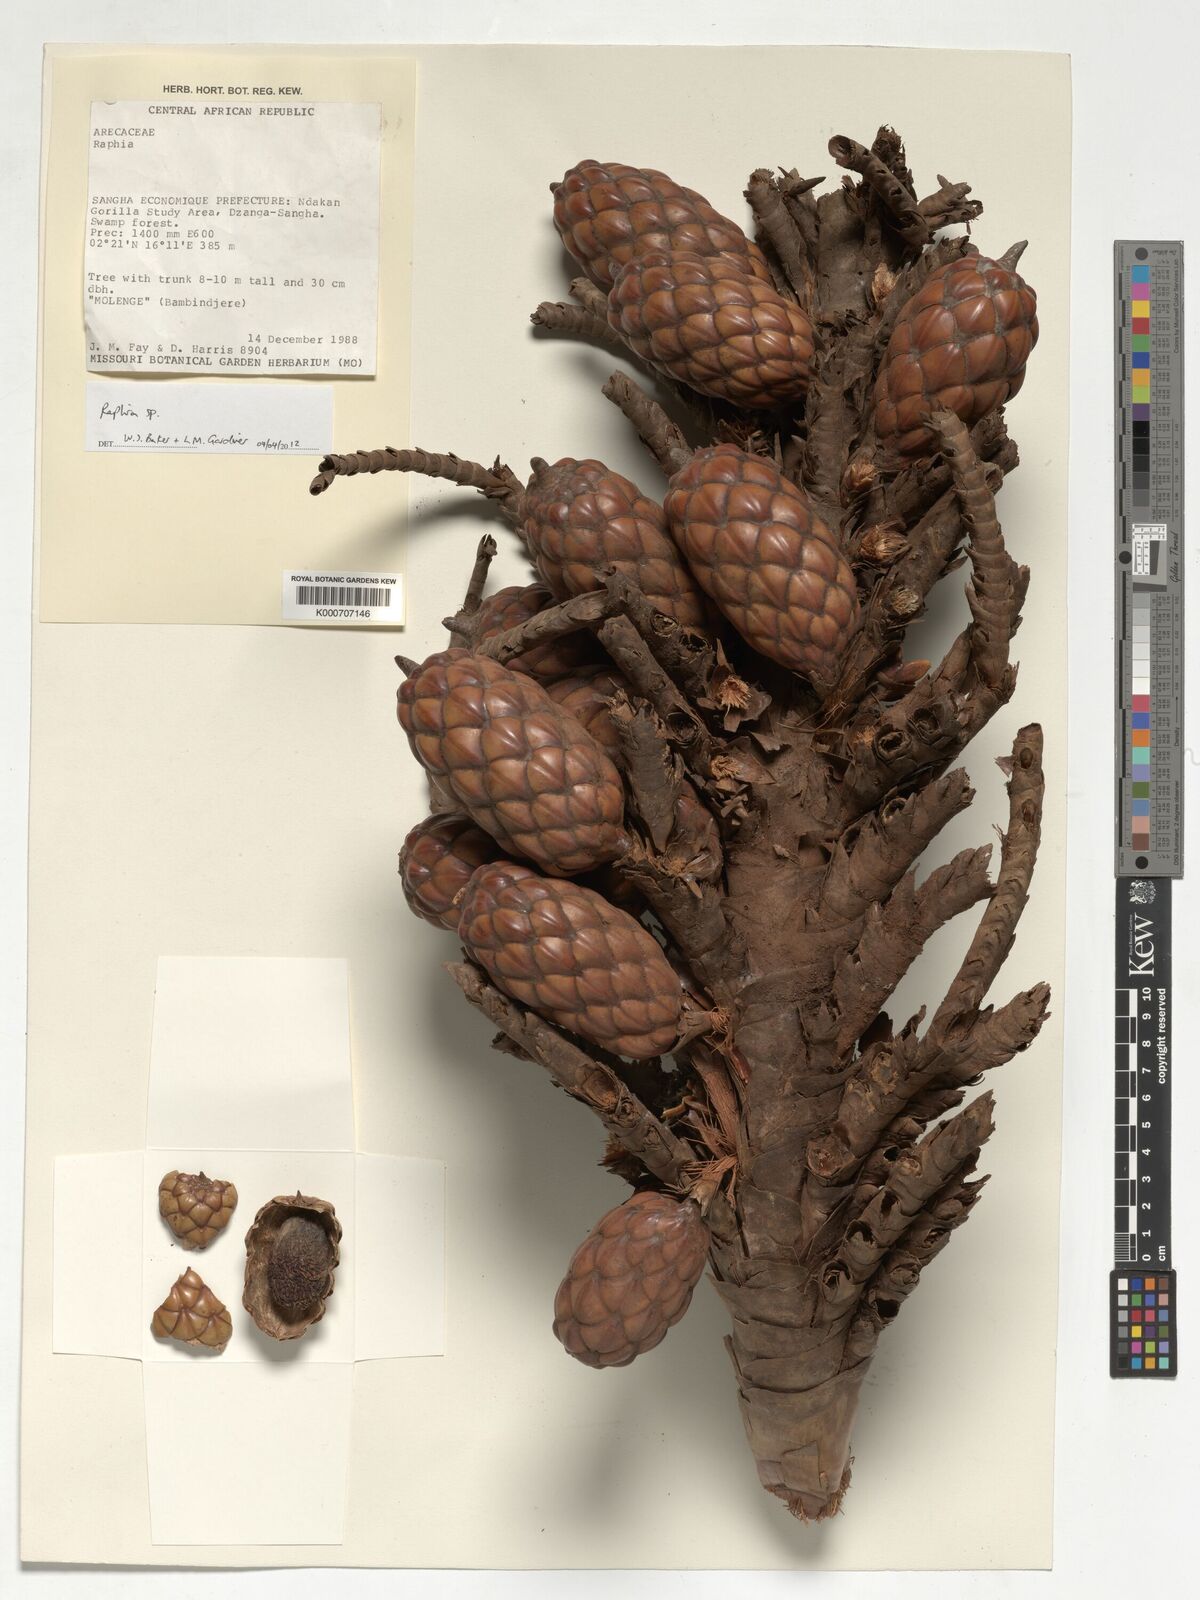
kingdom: Plantae
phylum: Tracheophyta
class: Liliopsida
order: Arecales
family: Arecaceae
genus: Raphia
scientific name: Raphia
